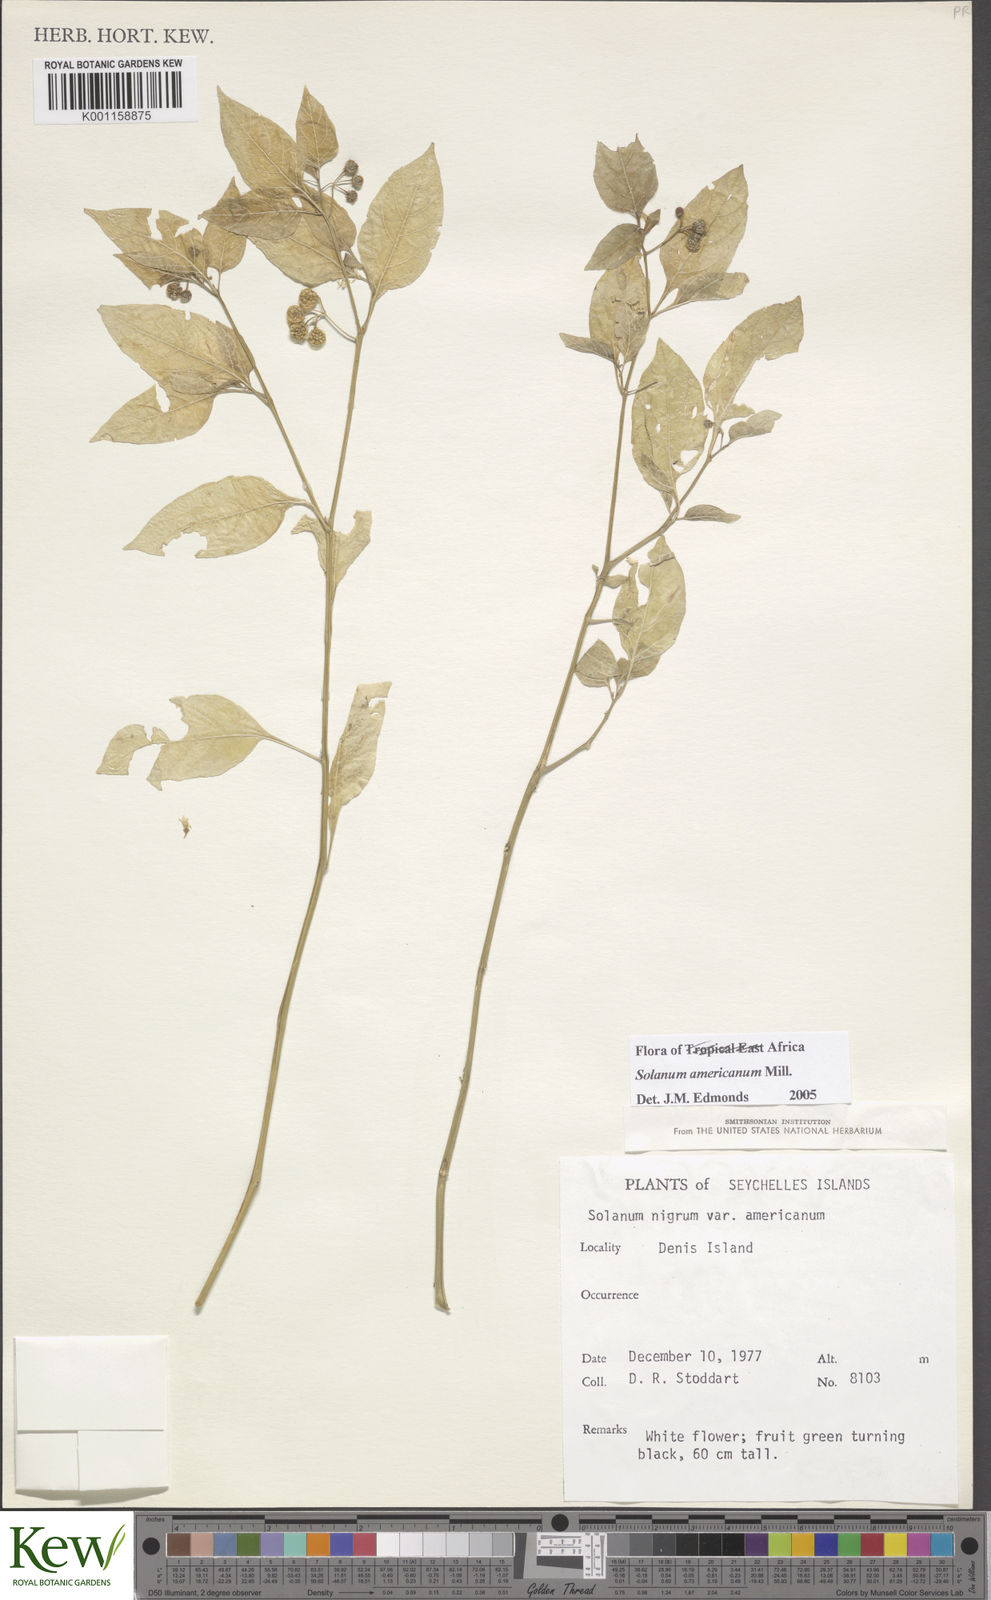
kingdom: Plantae
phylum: Tracheophyta
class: Magnoliopsida
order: Solanales
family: Solanaceae
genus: Solanum
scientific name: Solanum americanum
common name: American black nightshade
